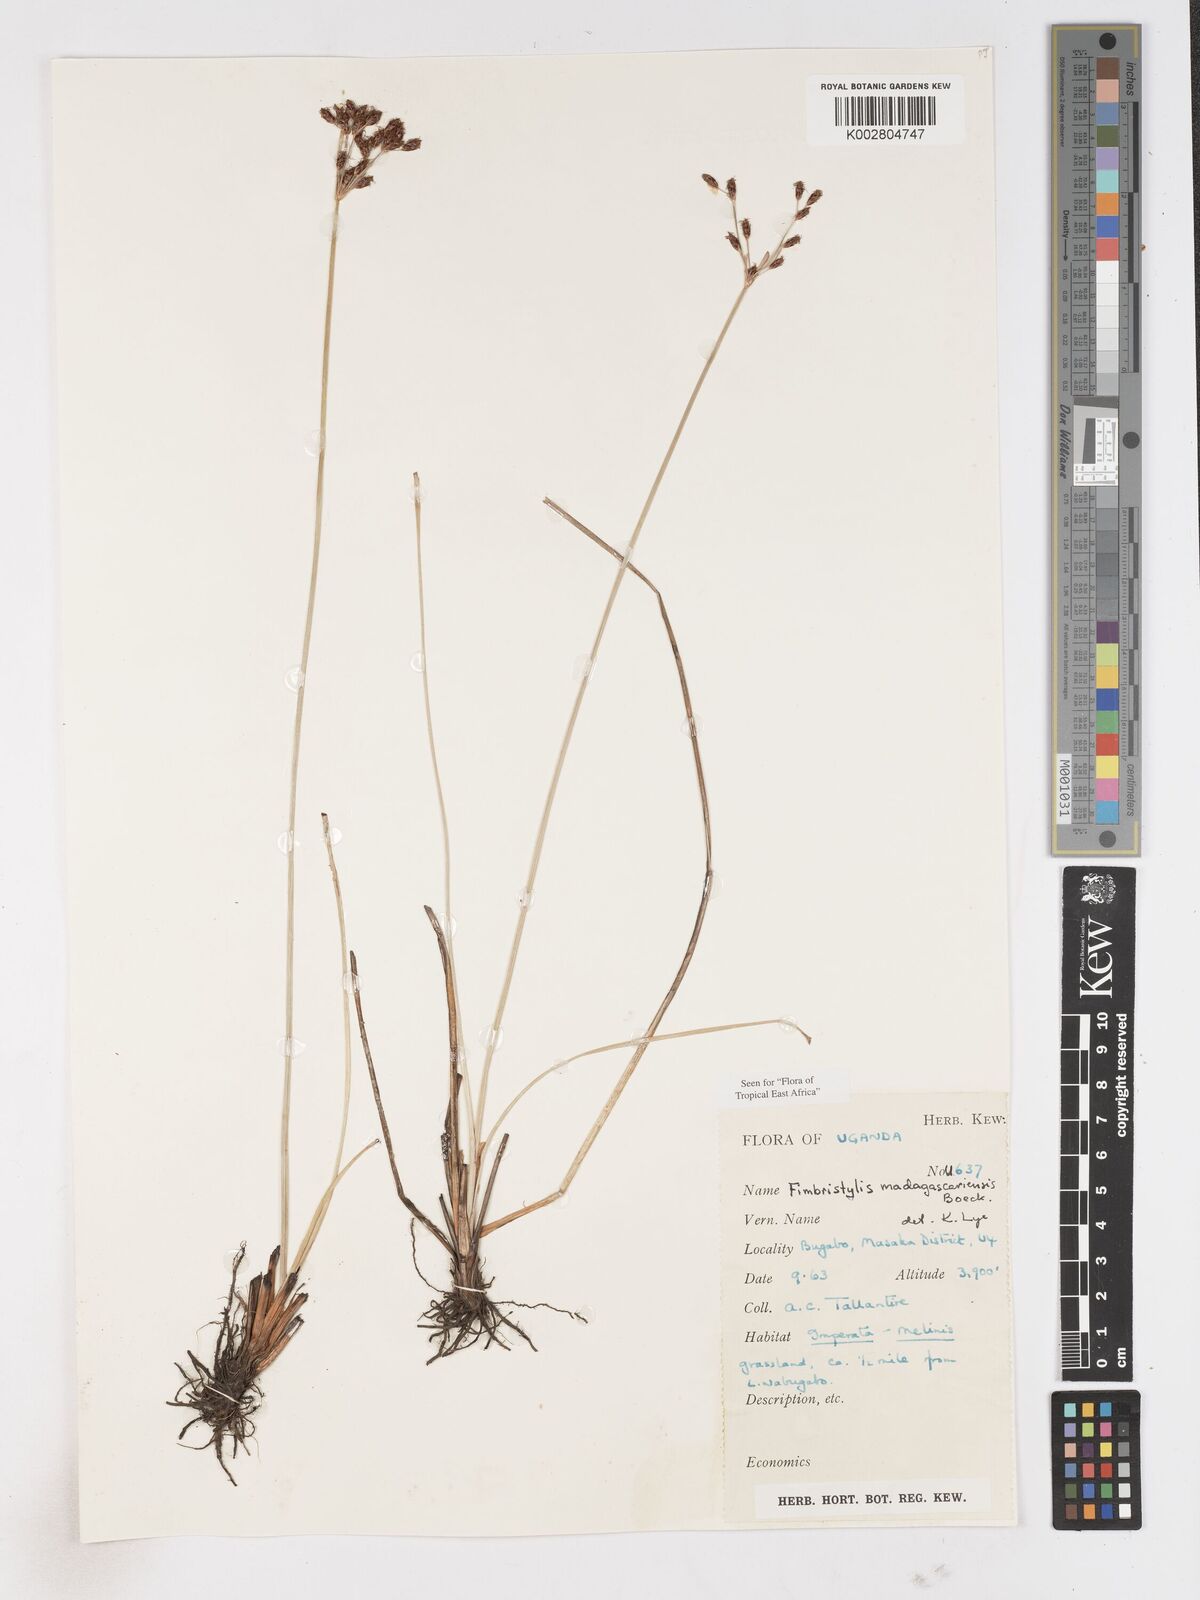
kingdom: Plantae
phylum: Tracheophyta
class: Liliopsida
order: Poales
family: Cyperaceae
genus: Fimbristylis
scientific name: Fimbristylis madagascariensis
